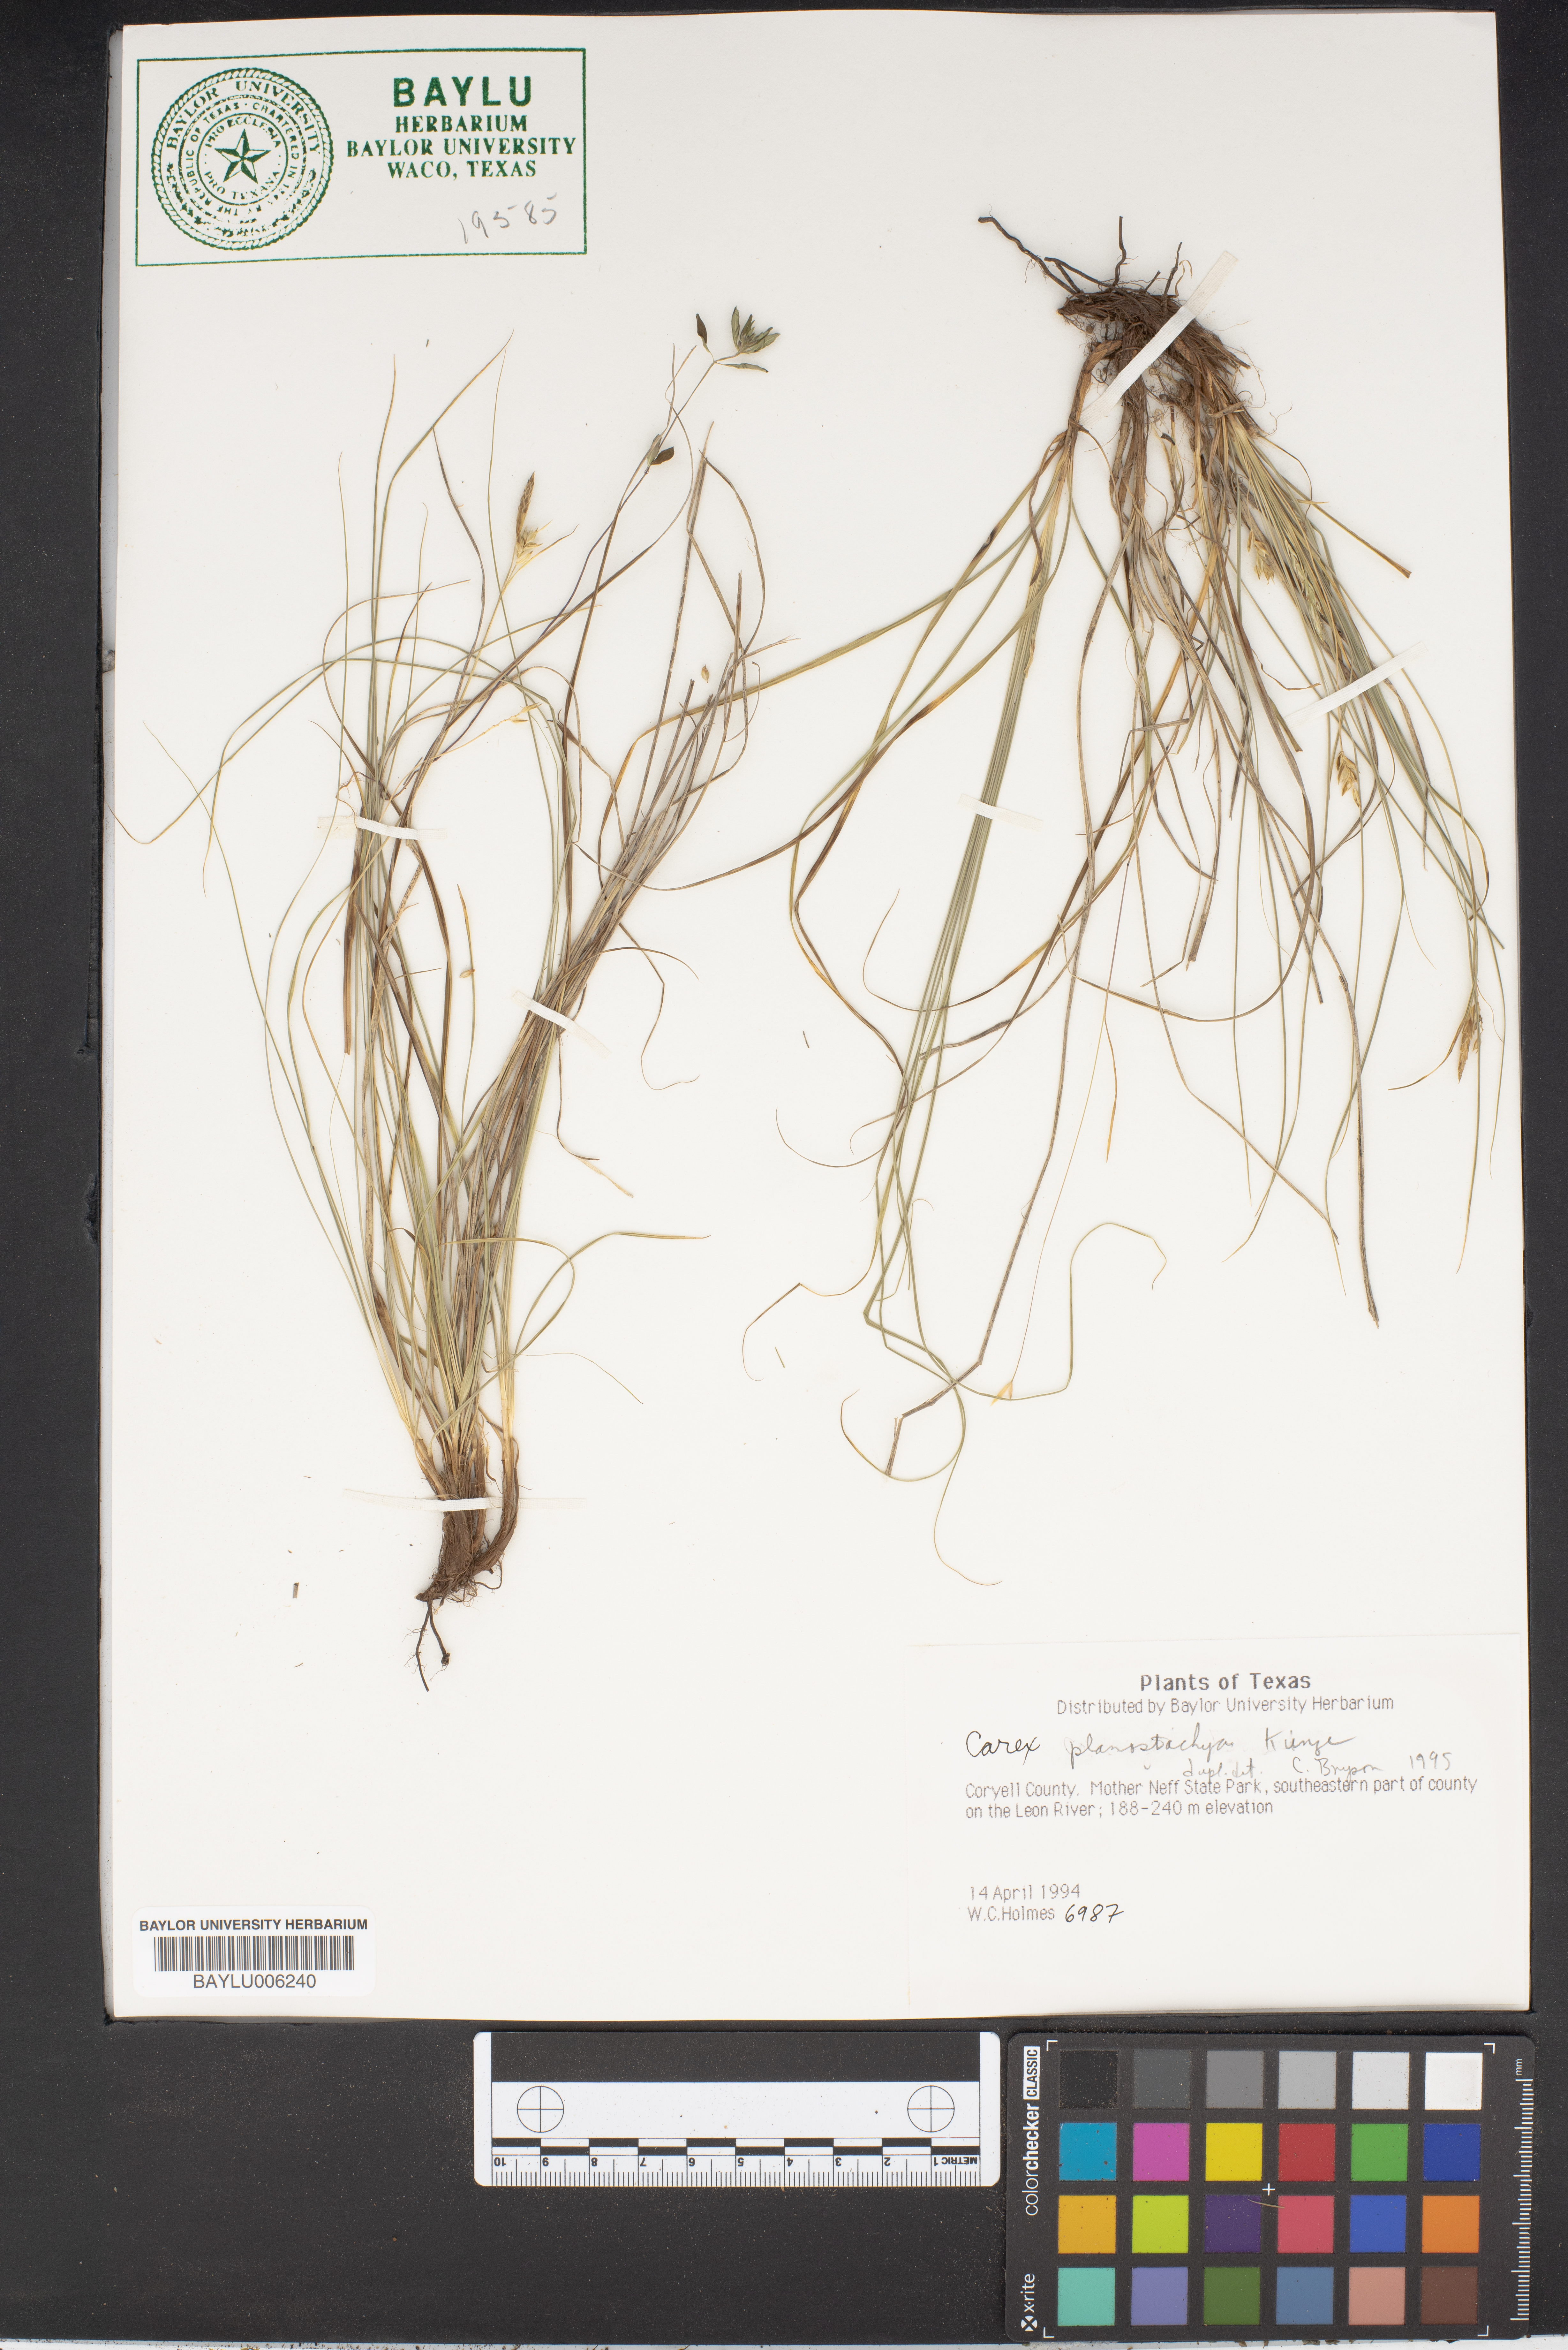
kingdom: Plantae
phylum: Tracheophyta
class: Liliopsida
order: Poales
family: Cyperaceae
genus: Carex
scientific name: Carex planostachys
